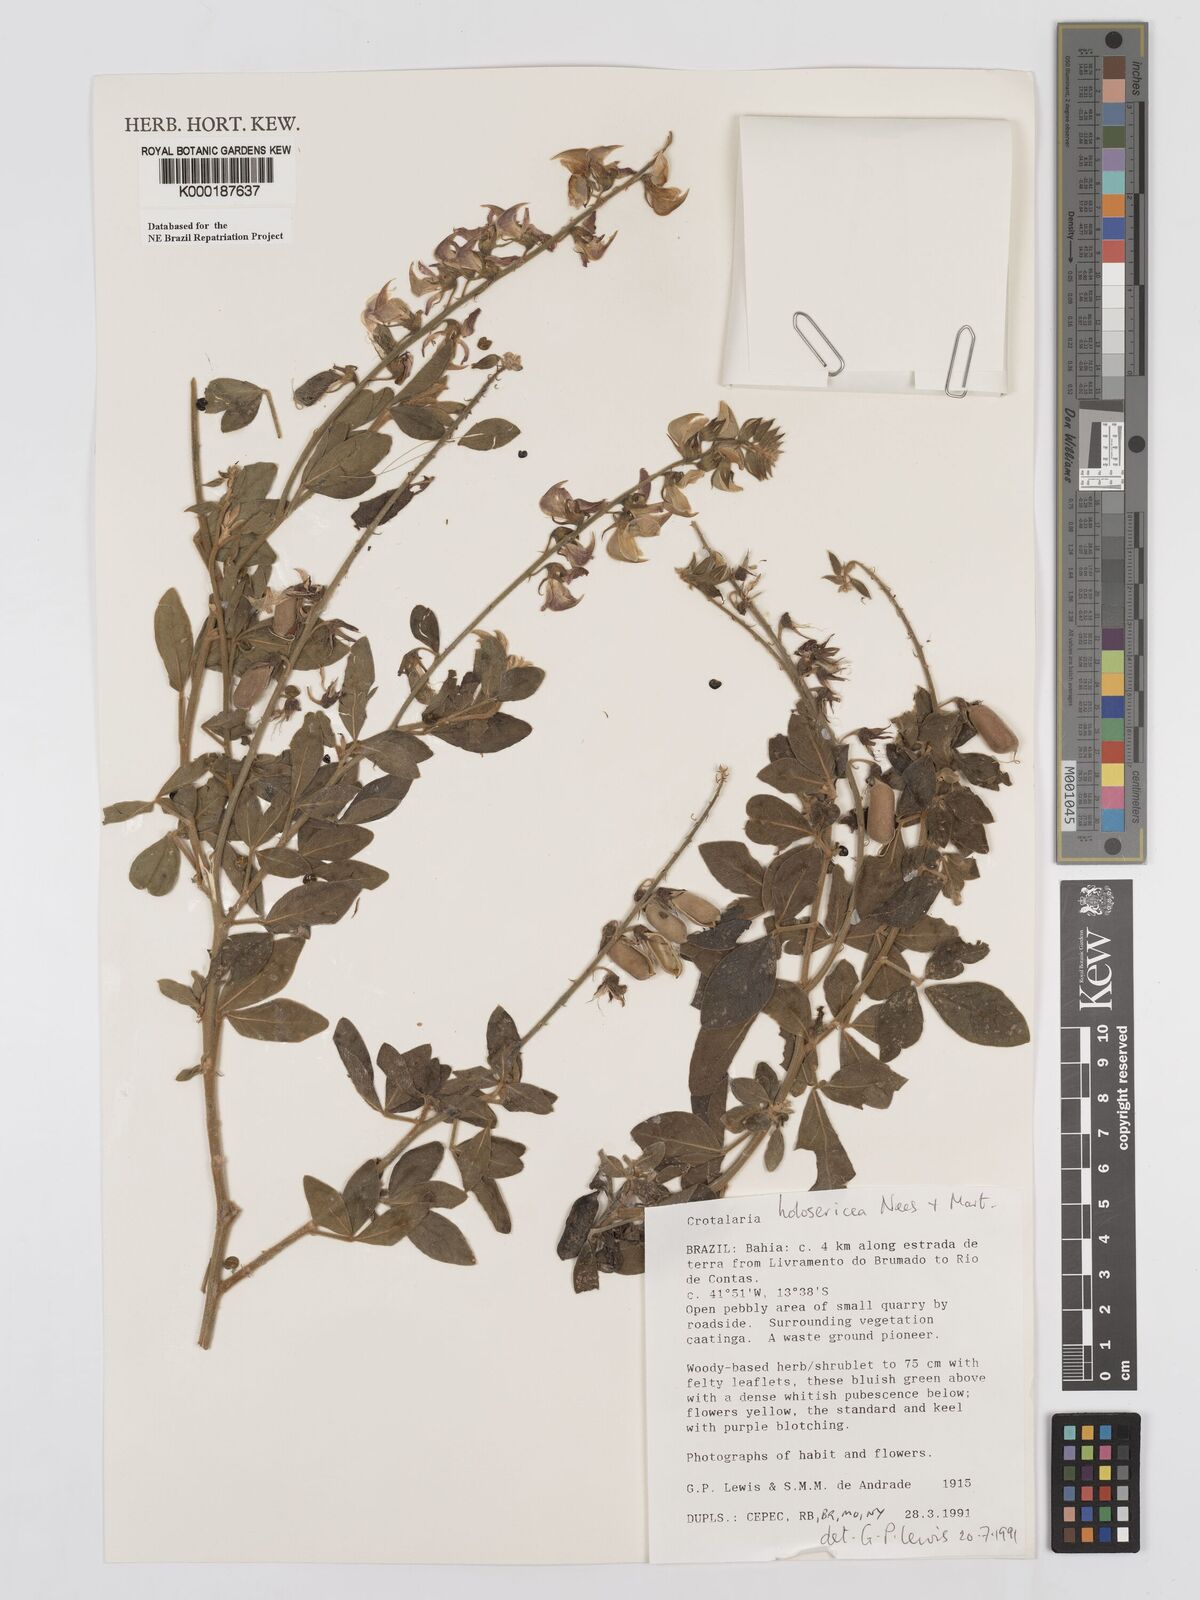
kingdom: Plantae
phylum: Tracheophyta
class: Magnoliopsida
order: Fabales
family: Fabaceae
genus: Crotalaria
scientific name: Crotalaria holosericea
